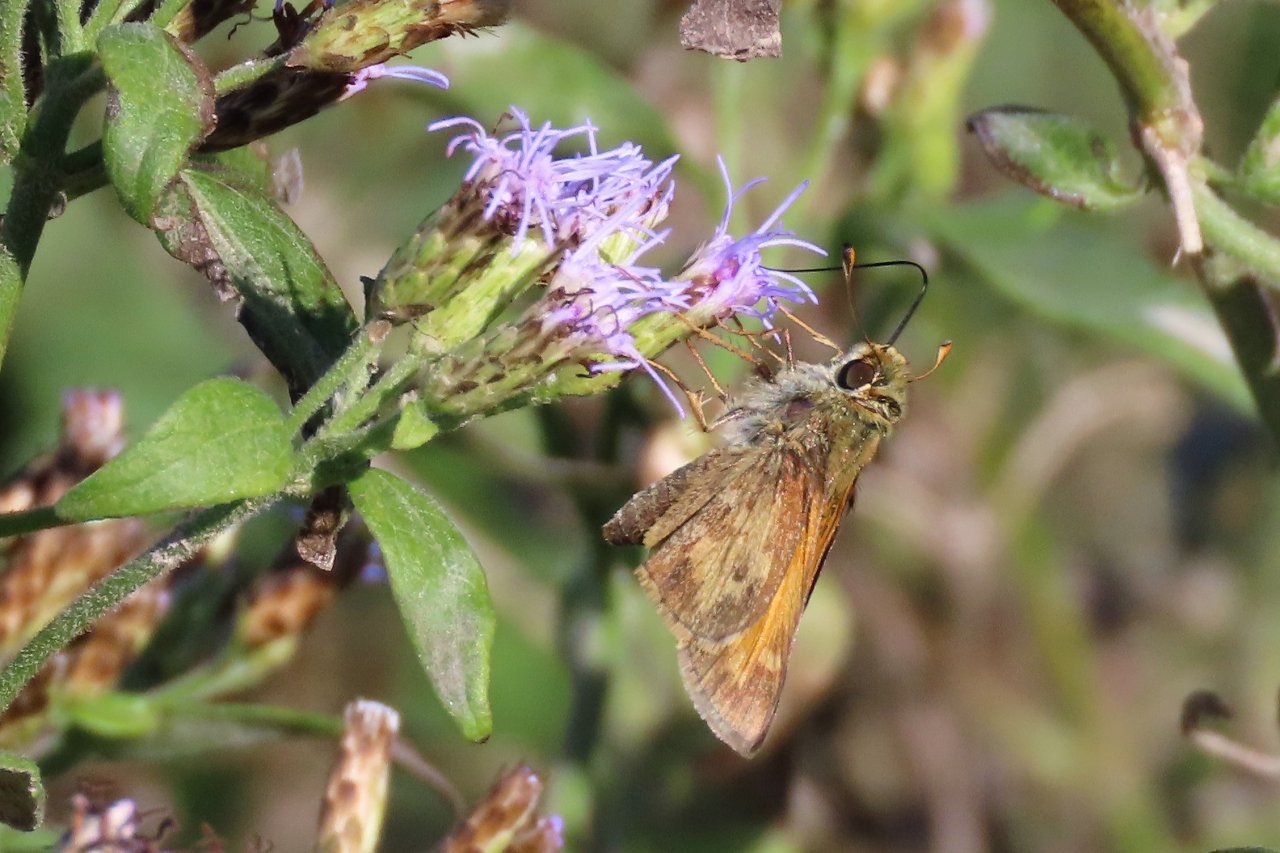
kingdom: Animalia
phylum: Arthropoda
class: Insecta
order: Lepidoptera
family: Hesperiidae
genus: Atalopedes
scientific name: Atalopedes campestris
